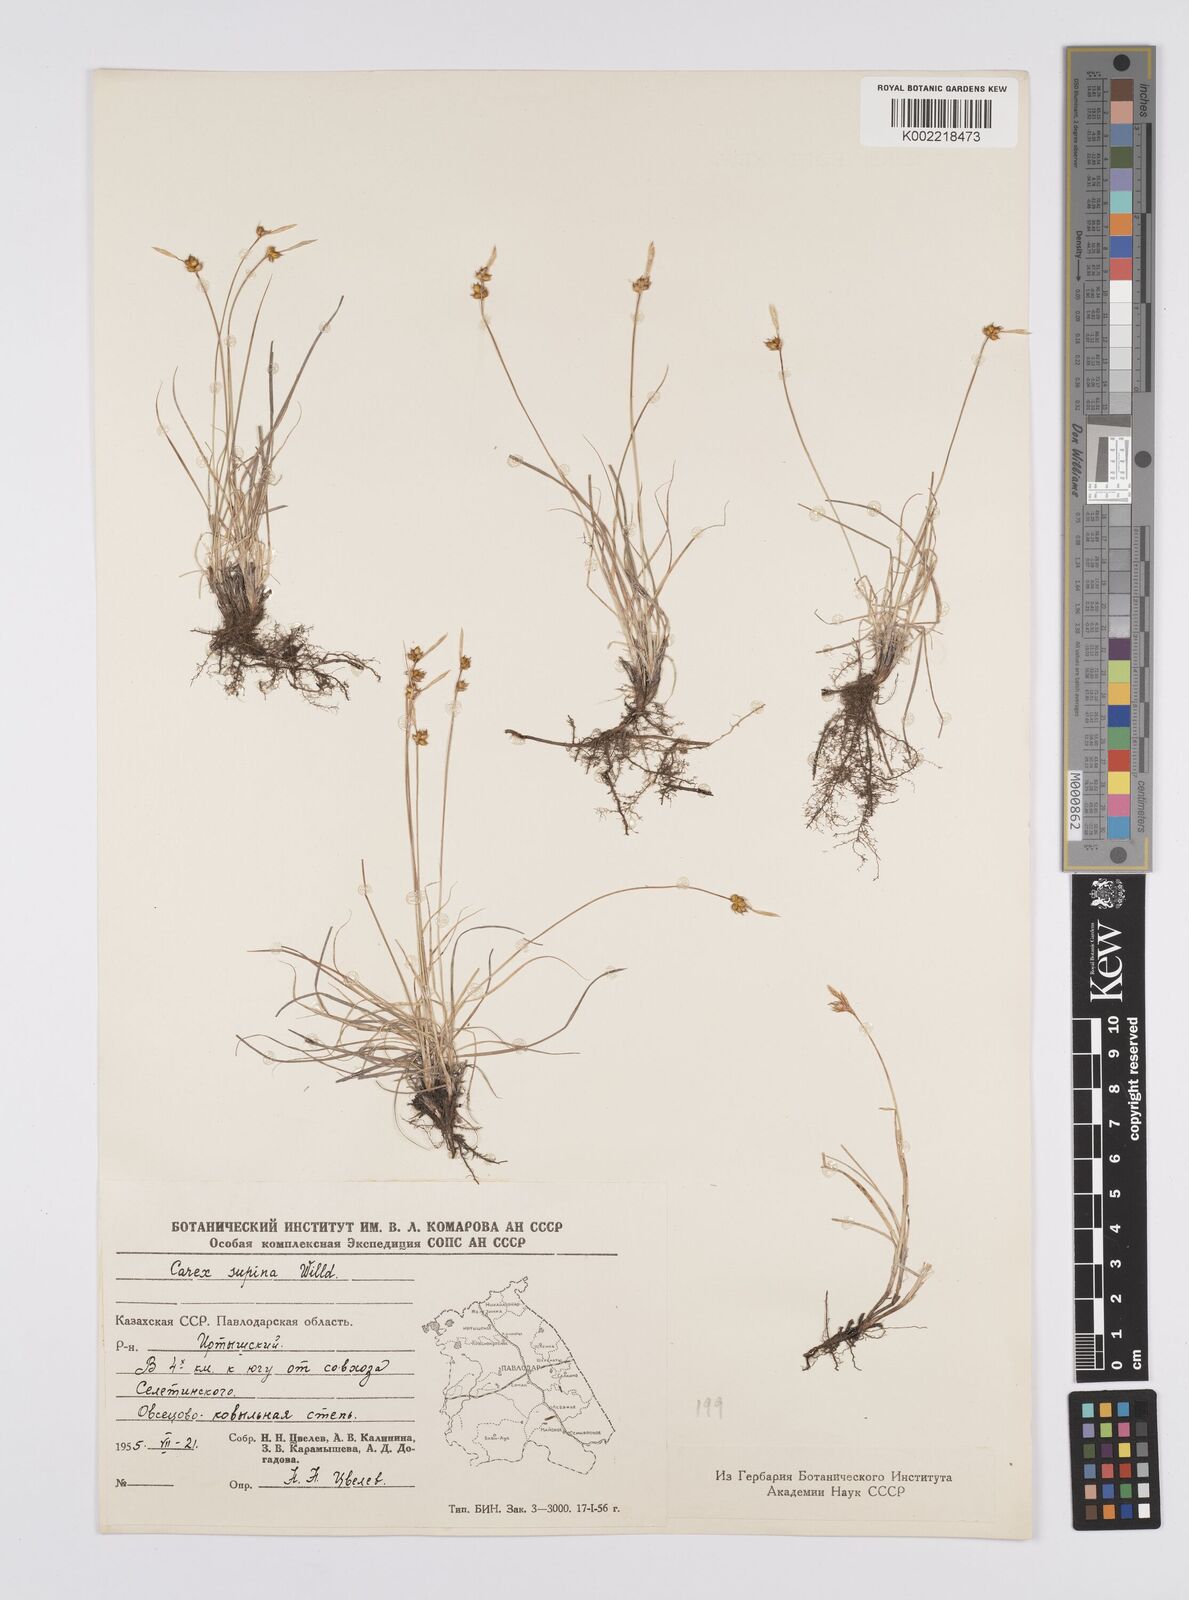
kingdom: Plantae
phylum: Tracheophyta
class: Liliopsida
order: Poales
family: Cyperaceae
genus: Carex
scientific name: Carex supina
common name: Lying-back sedge
